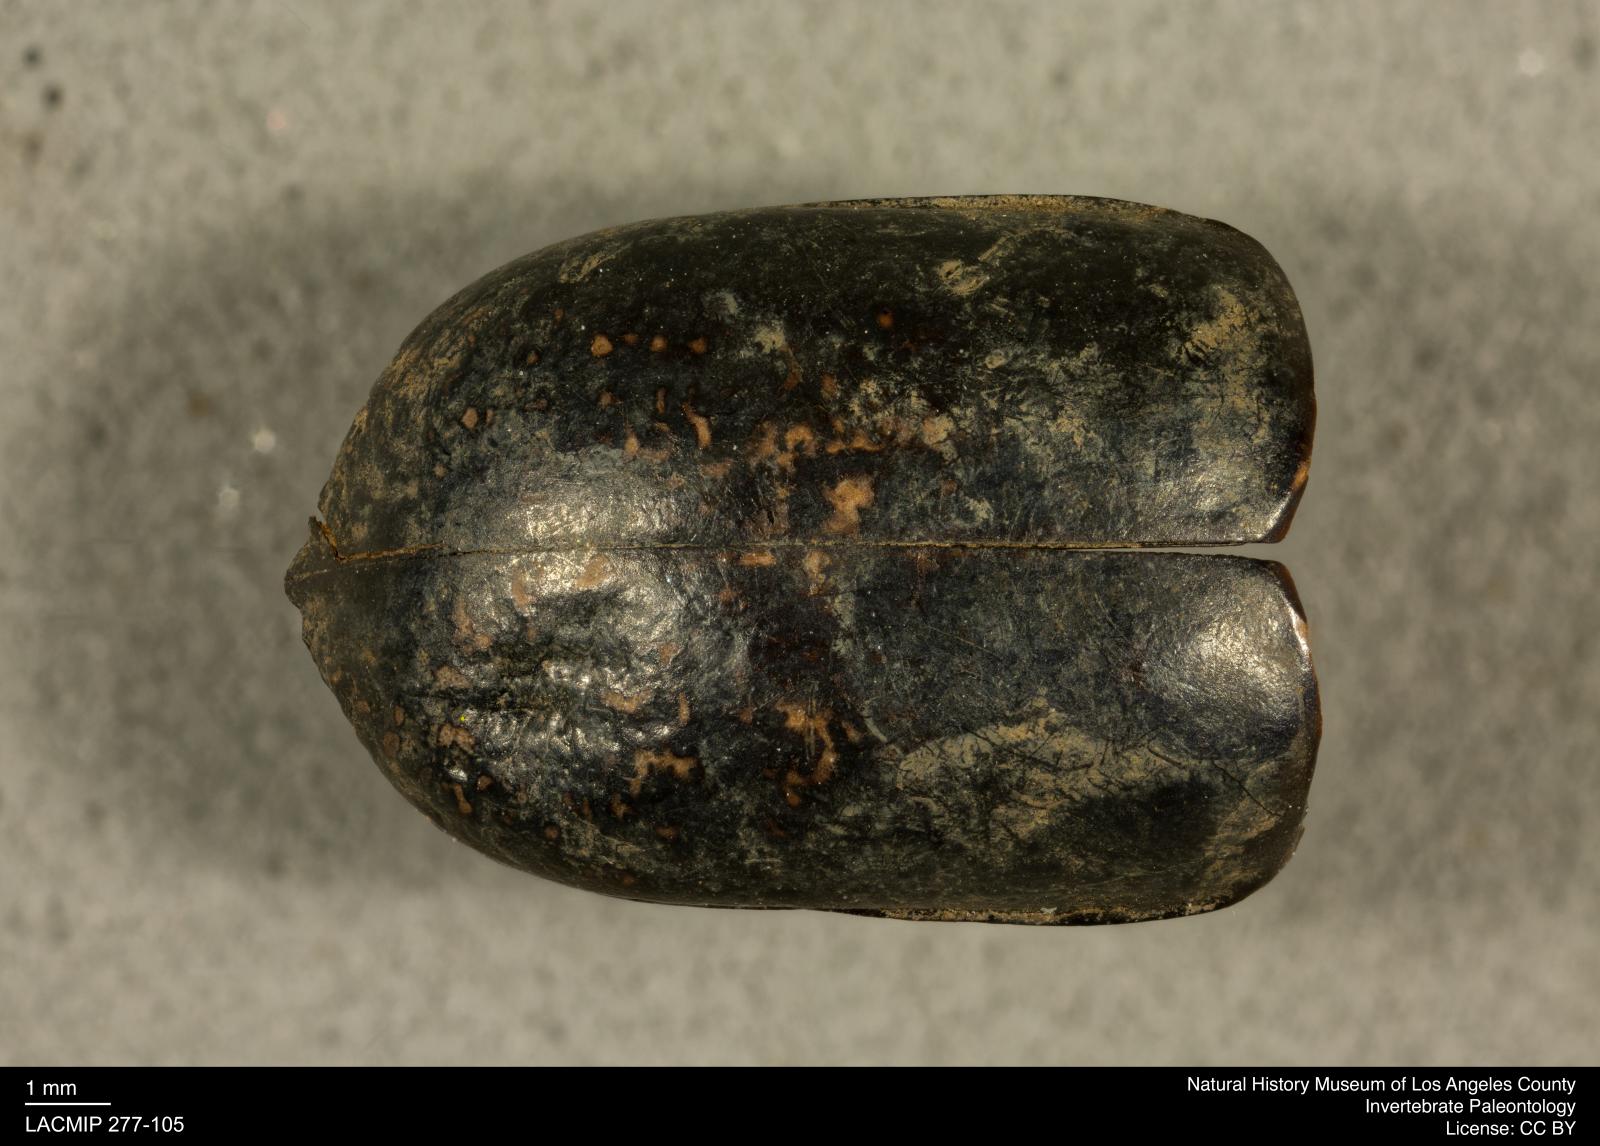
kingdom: Animalia
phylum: Arthropoda
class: Insecta
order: Coleoptera
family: Tenebrionidae
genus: Coniontis
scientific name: Coniontis abdominalis
